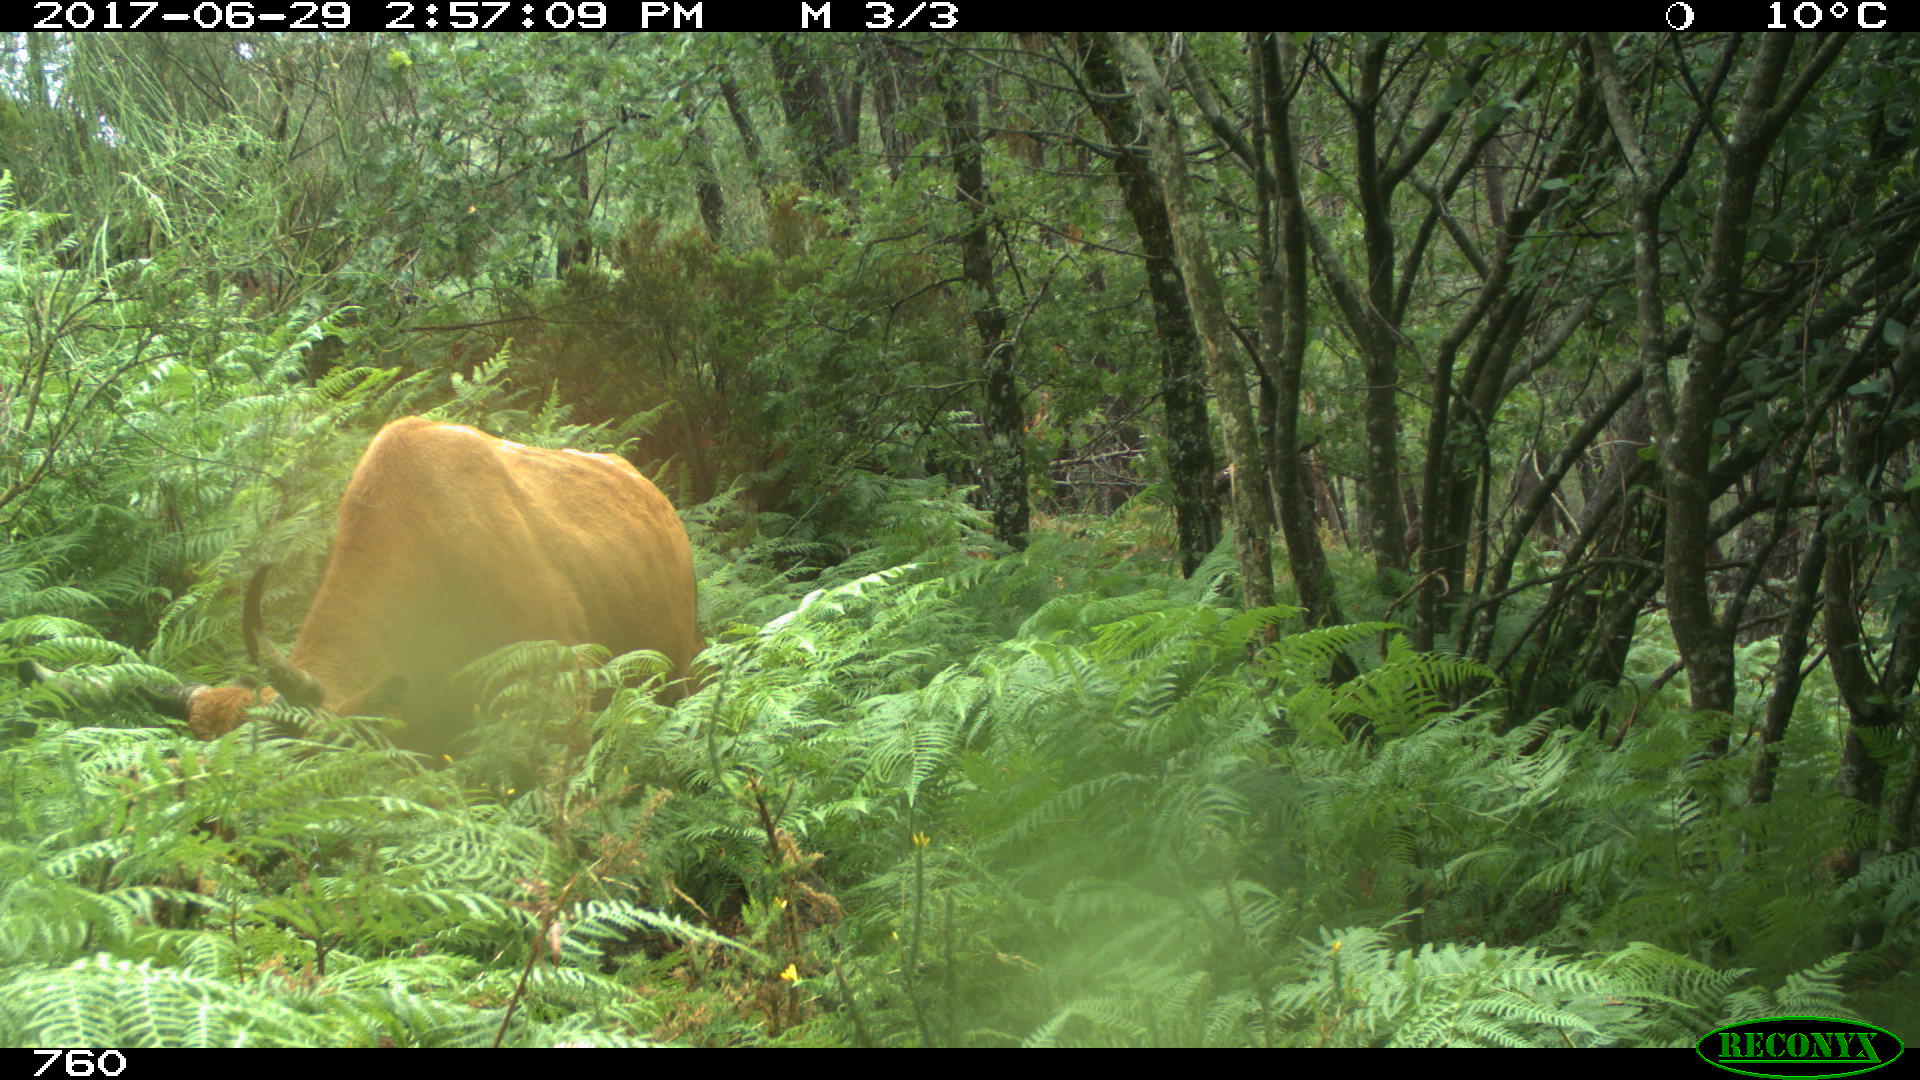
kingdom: Animalia
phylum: Chordata
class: Mammalia
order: Artiodactyla
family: Bovidae
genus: Bos
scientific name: Bos taurus
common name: Domesticated cattle
